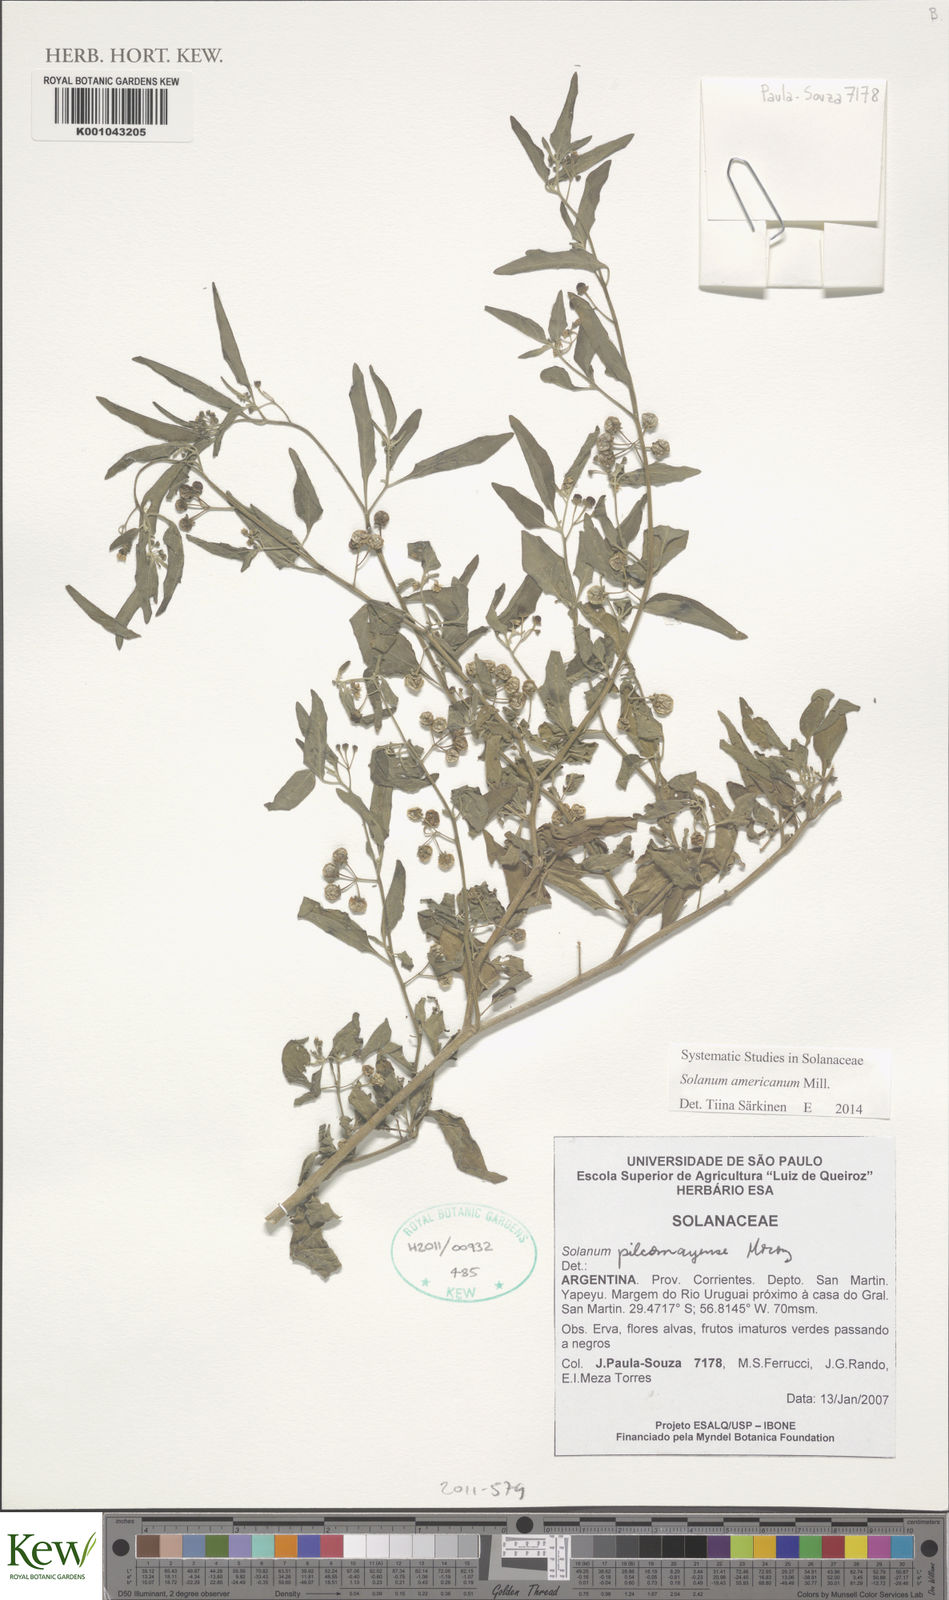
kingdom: Plantae
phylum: Tracheophyta
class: Magnoliopsida
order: Solanales
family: Solanaceae
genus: Solanum
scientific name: Solanum americanum
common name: American black nightshade
